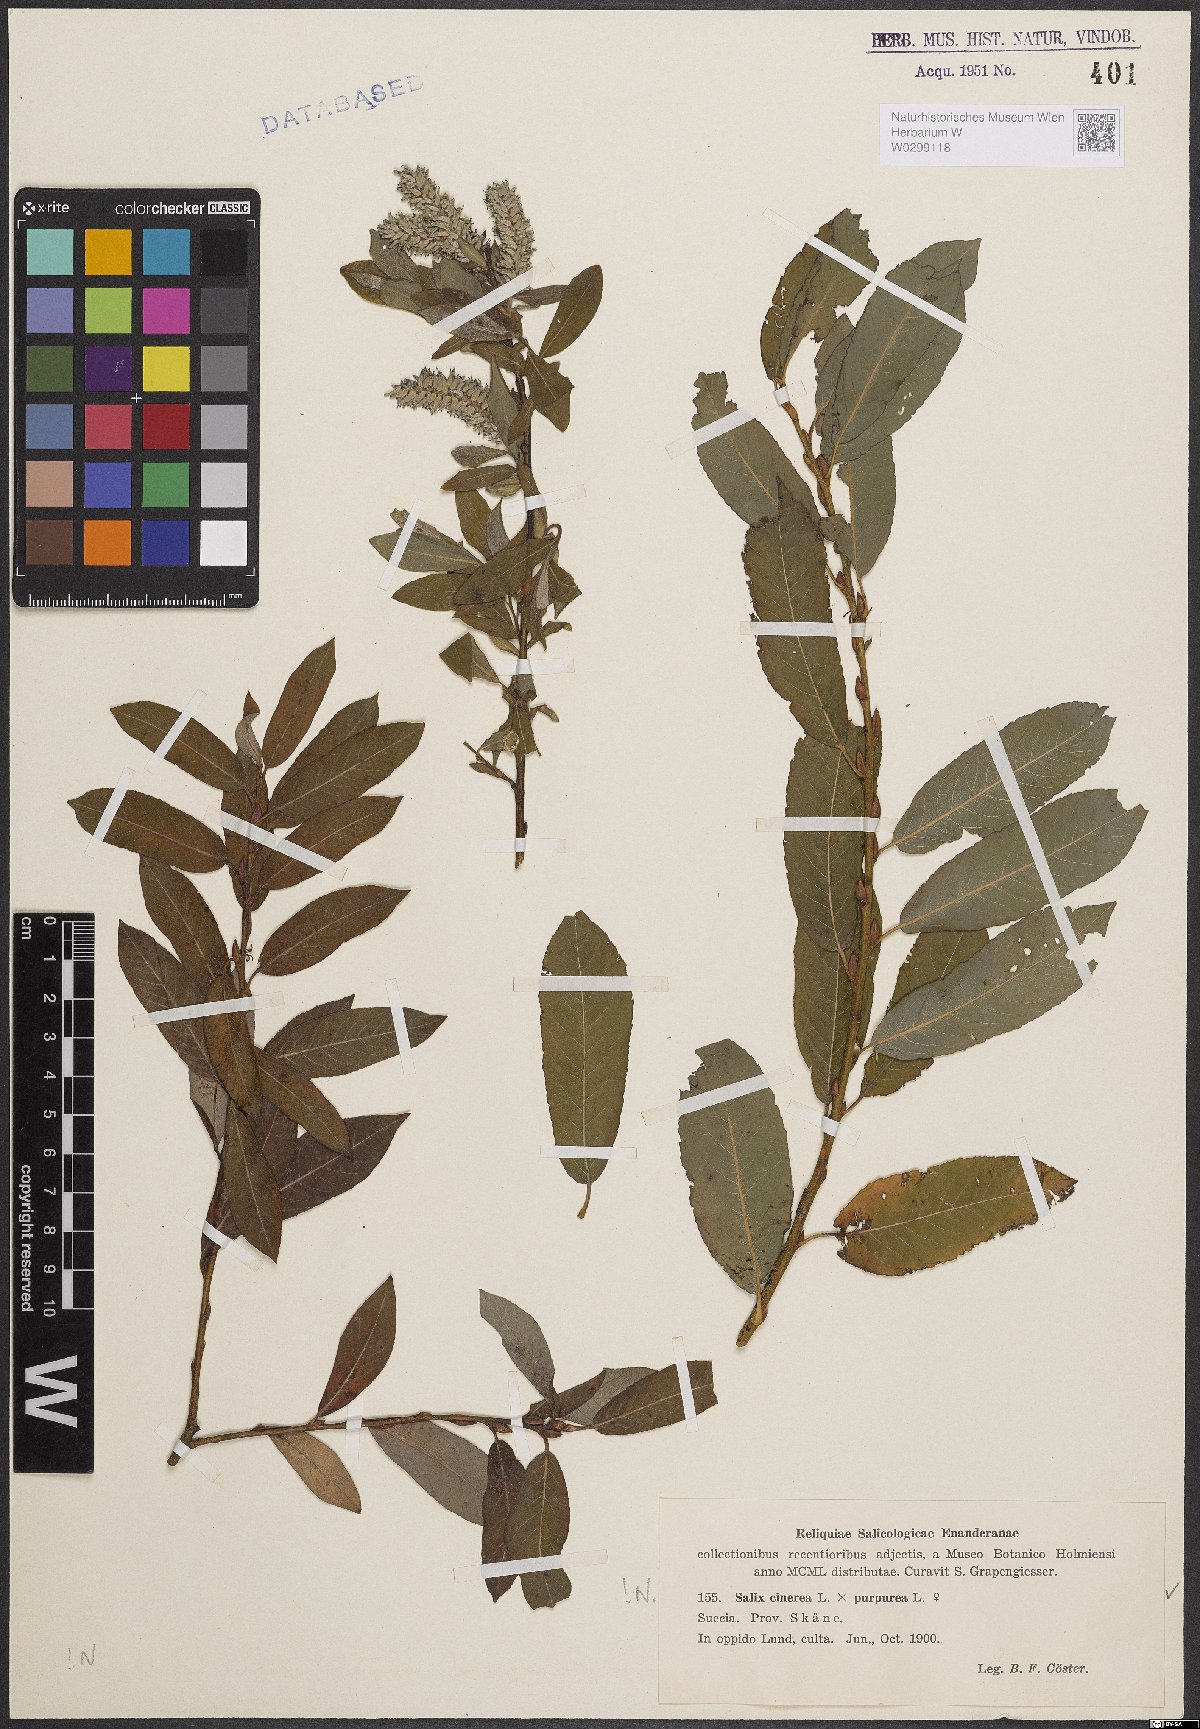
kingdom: Plantae
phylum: Tracheophyta
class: Magnoliopsida
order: Malpighiales
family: Salicaceae
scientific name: Salicaceae
